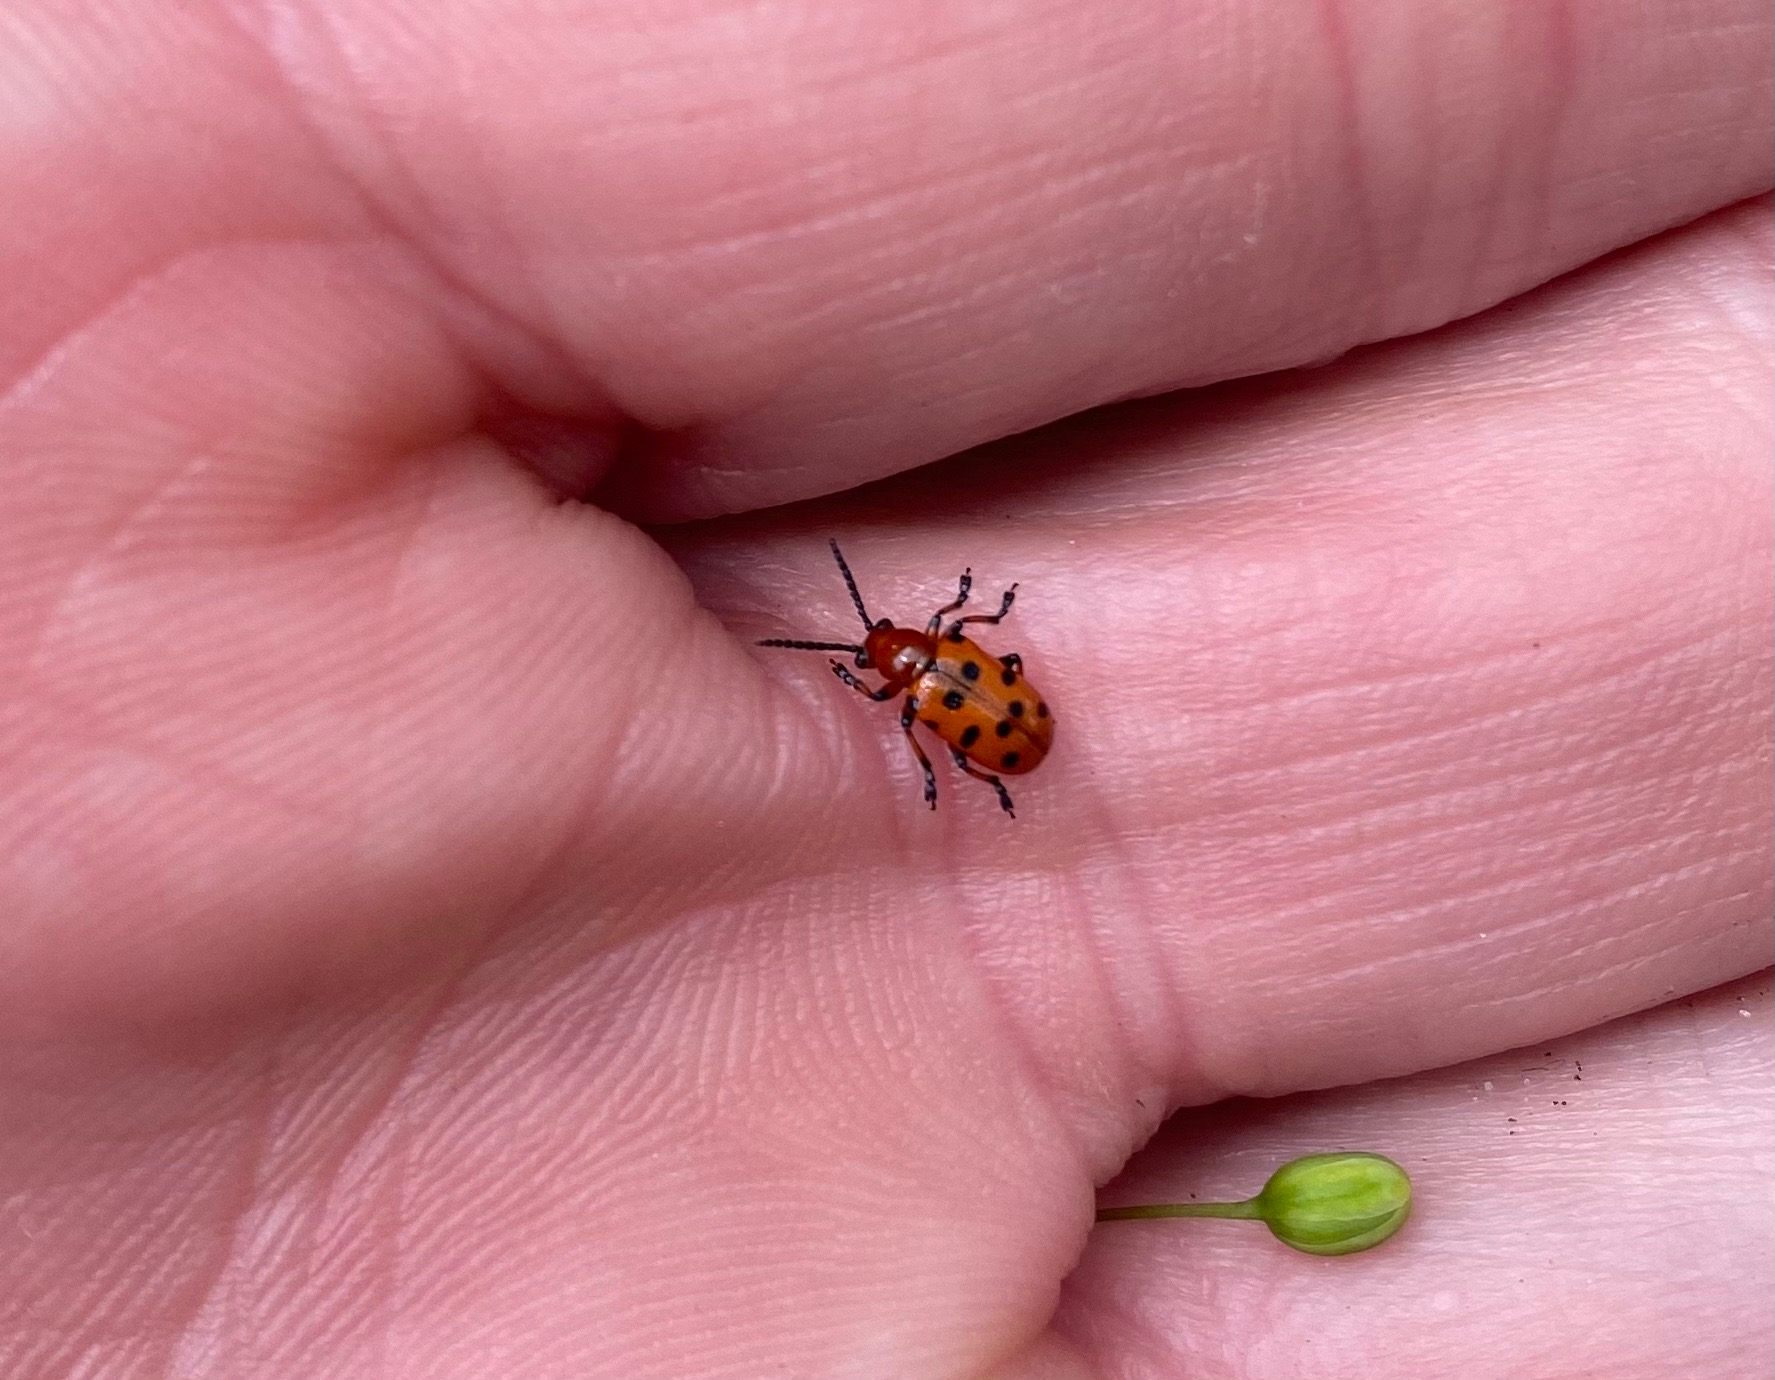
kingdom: Animalia
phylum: Arthropoda
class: Insecta
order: Coleoptera
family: Chrysomelidae
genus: Crioceris
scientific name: Crioceris duodecimpunctata
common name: Tolvplettet aspargesbille
